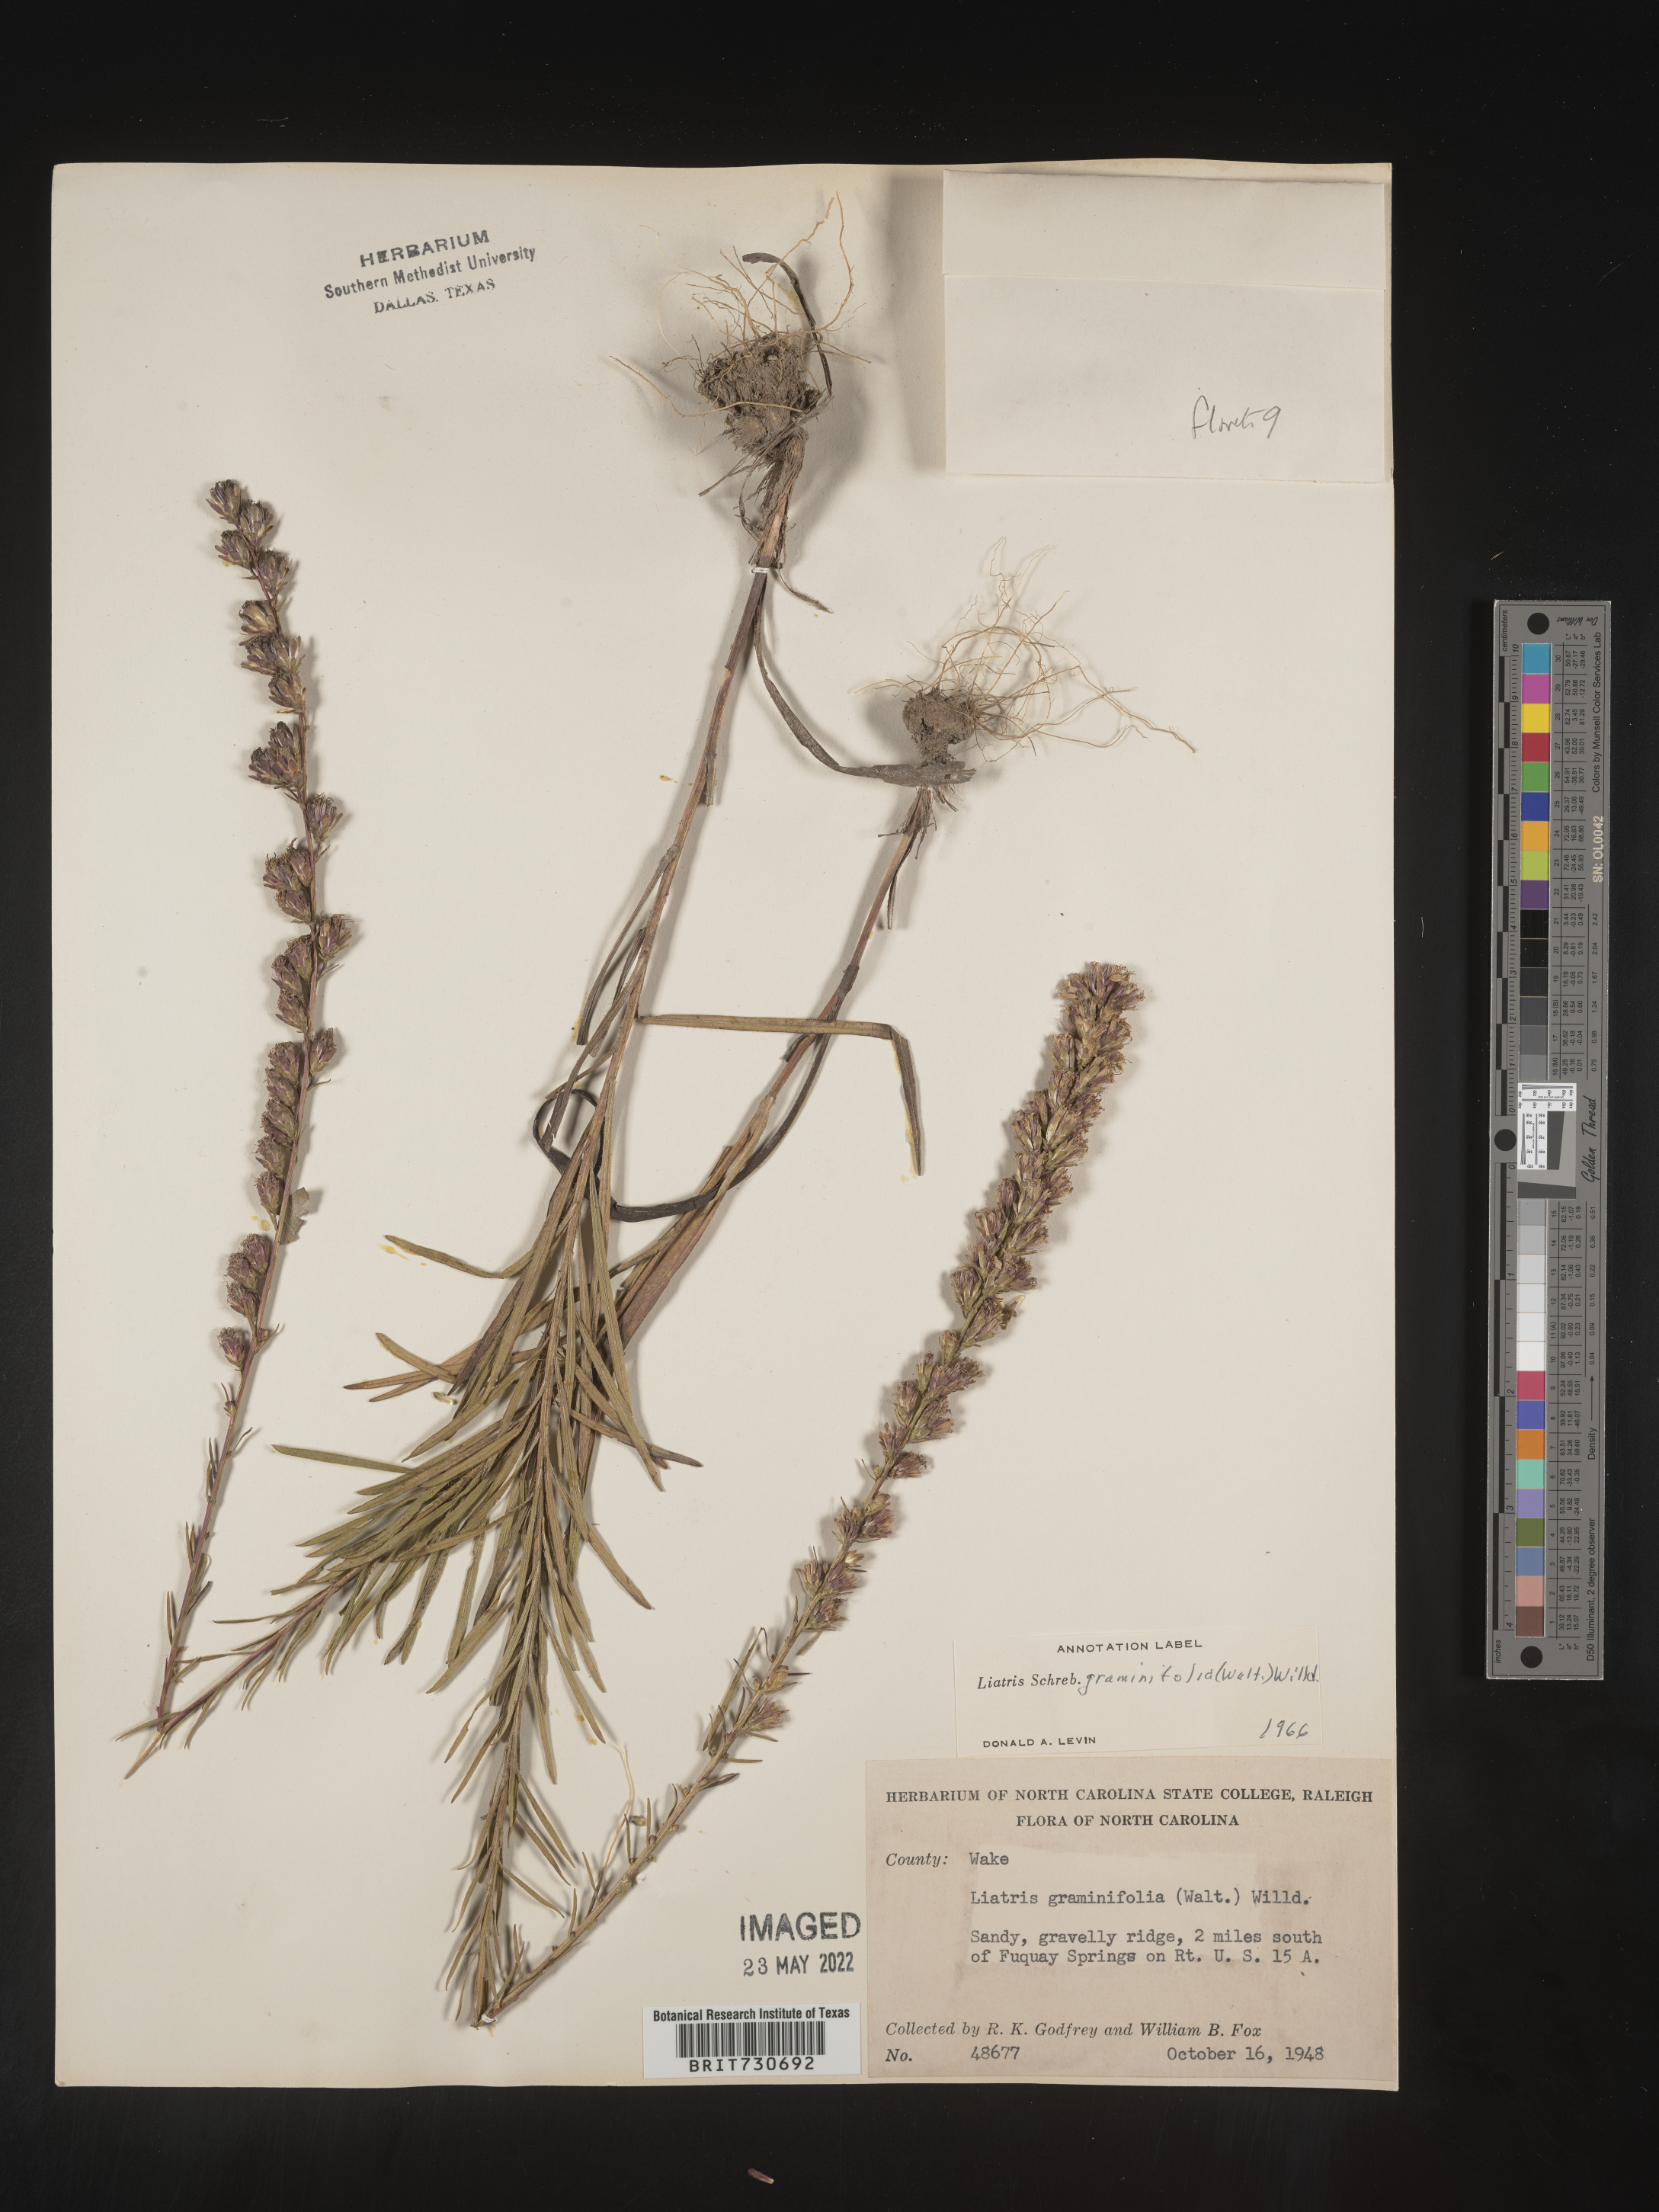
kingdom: Plantae
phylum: Tracheophyta
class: Magnoliopsida
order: Asterales
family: Asteraceae
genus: Liatris
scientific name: Liatris pilosa
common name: Grass-leaf gayfeather
